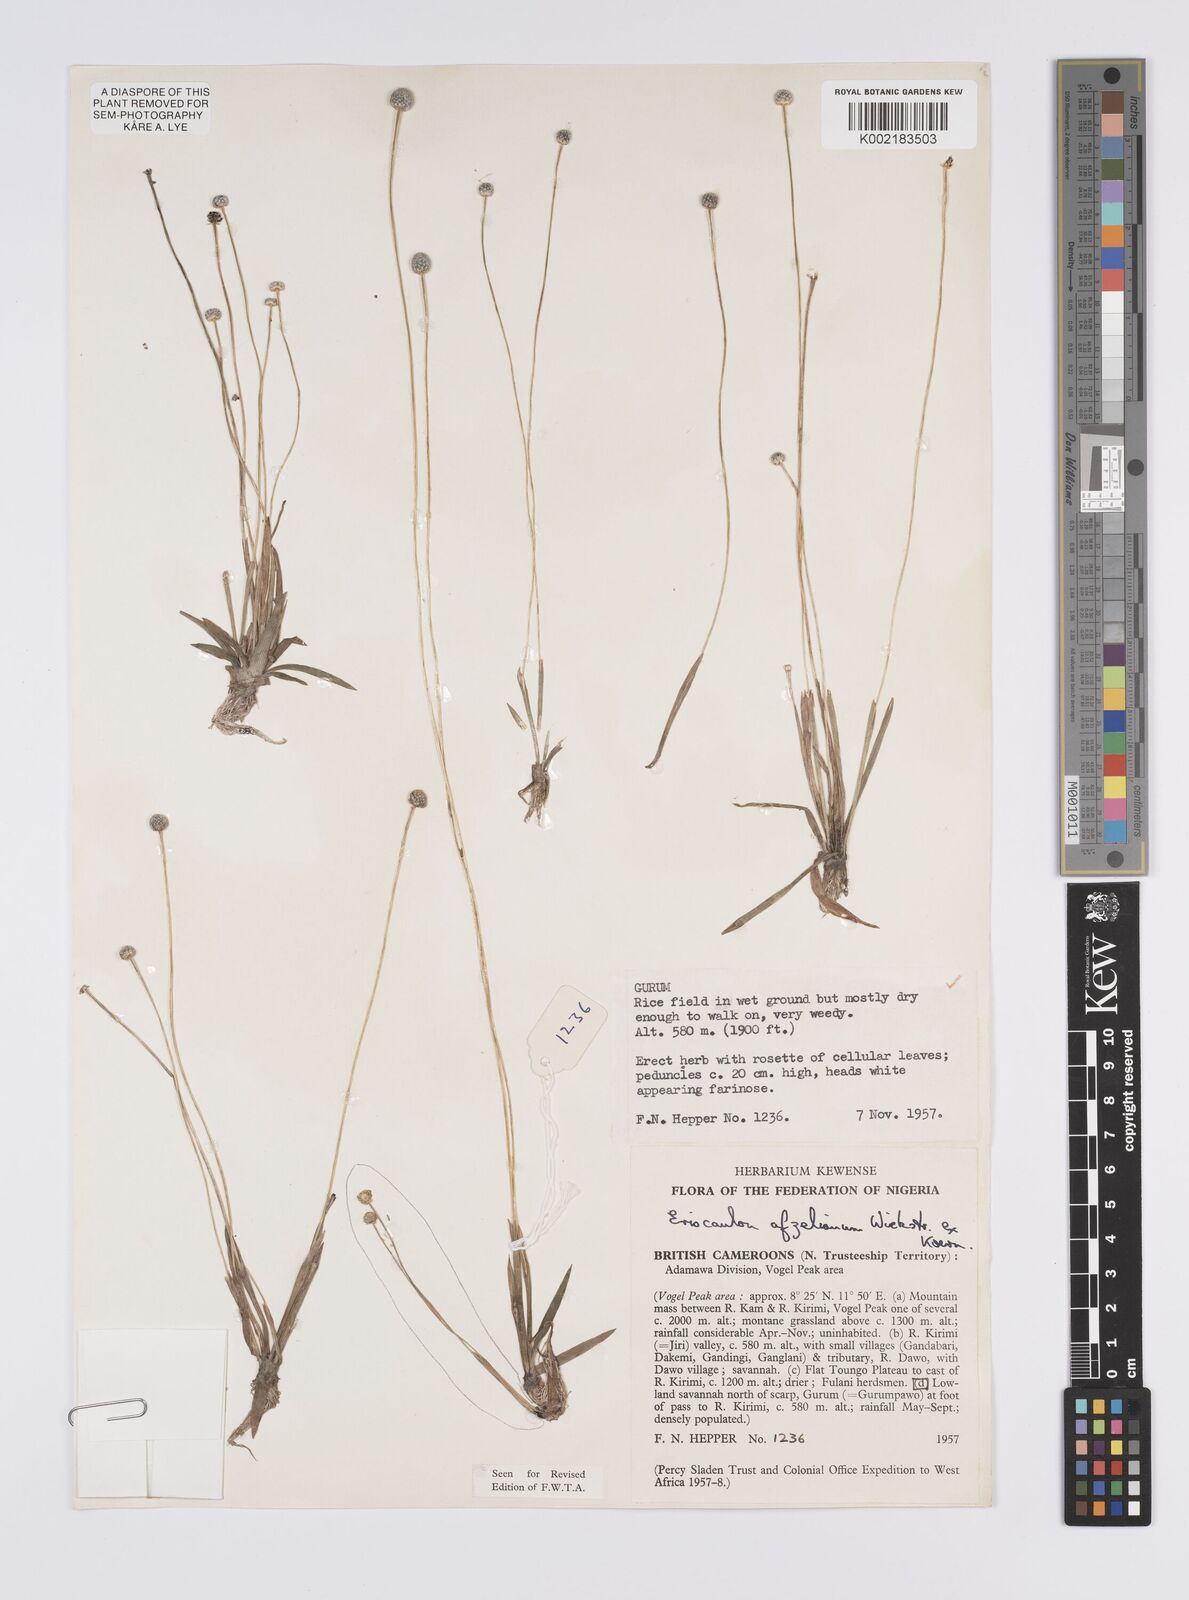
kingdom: Plantae
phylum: Tracheophyta
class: Liliopsida
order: Poales
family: Eriocaulaceae
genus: Eriocaulon
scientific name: Eriocaulon afzelianum
